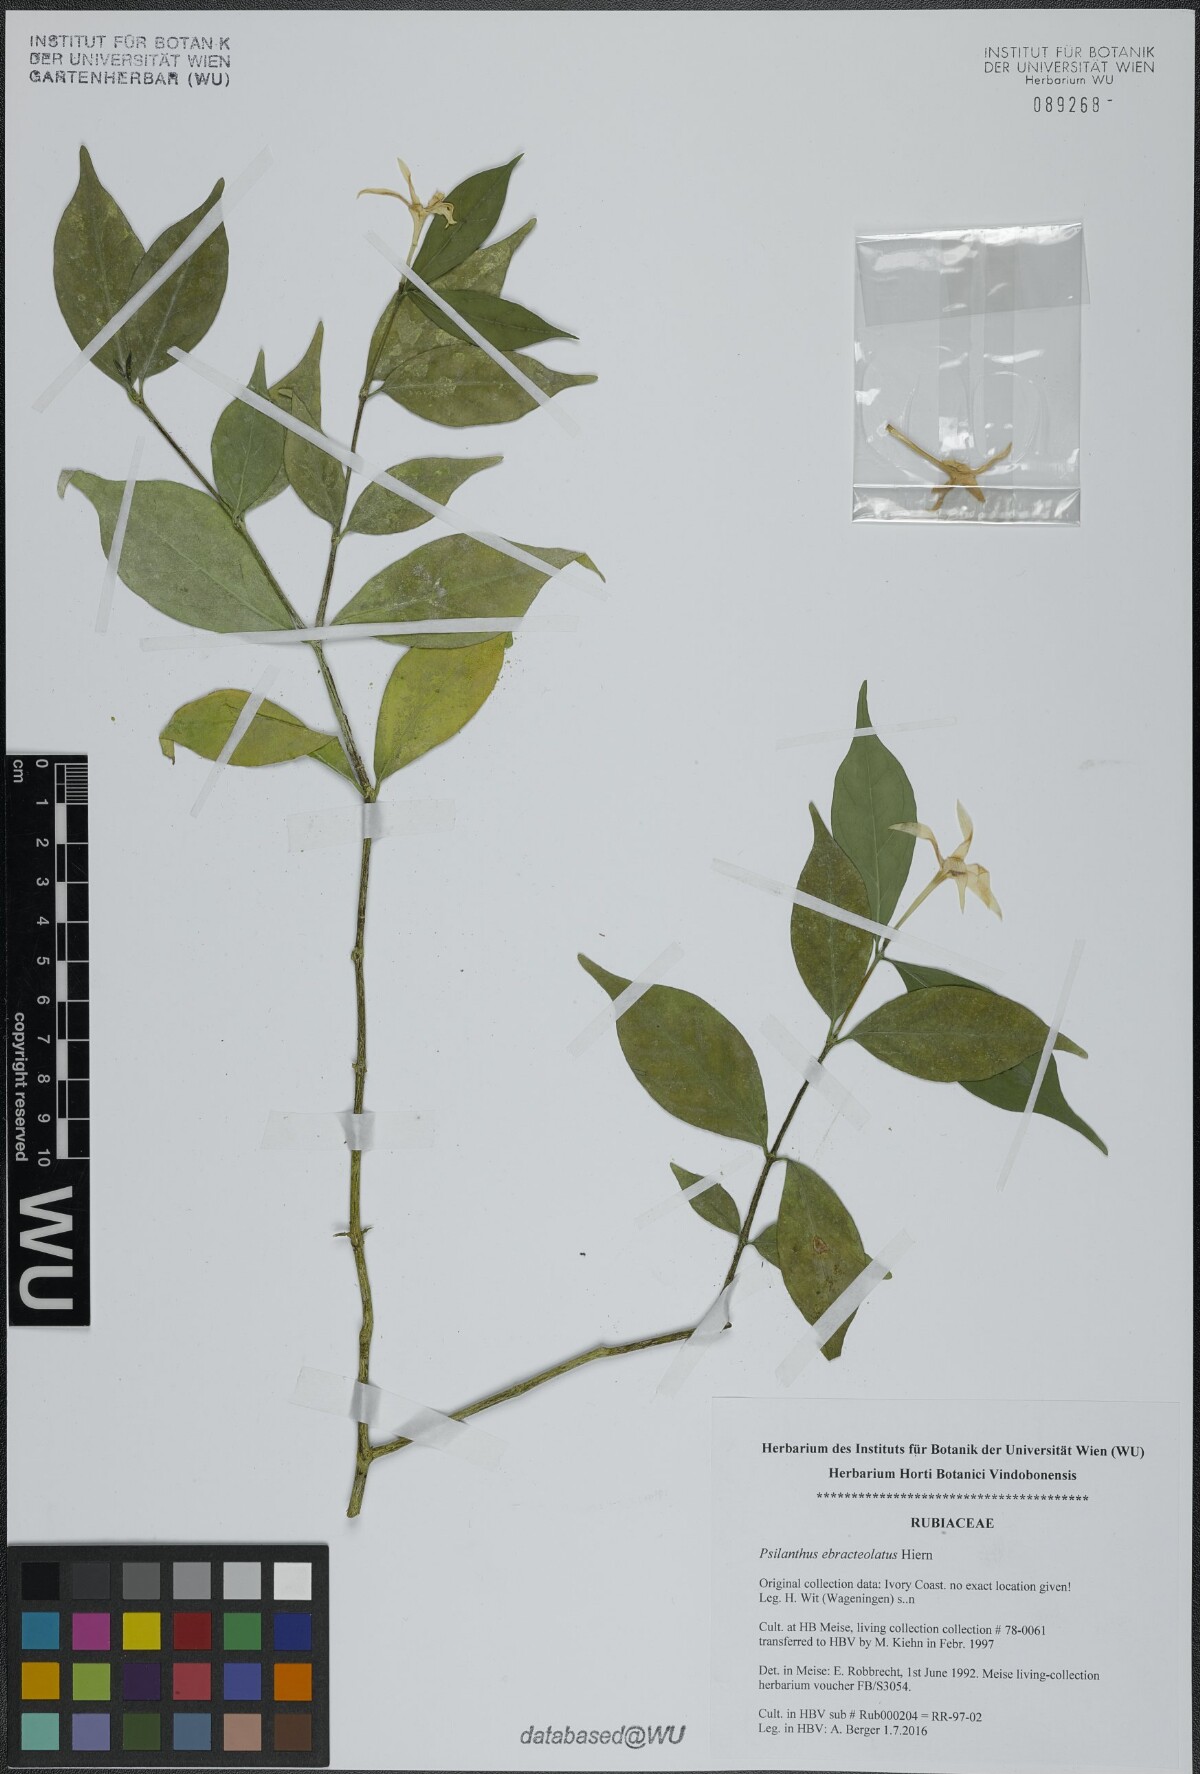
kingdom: Plantae
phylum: Tracheophyta
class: Magnoliopsida
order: Gentianales
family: Rubiaceae
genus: Coffea
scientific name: Coffea ebracteolata
